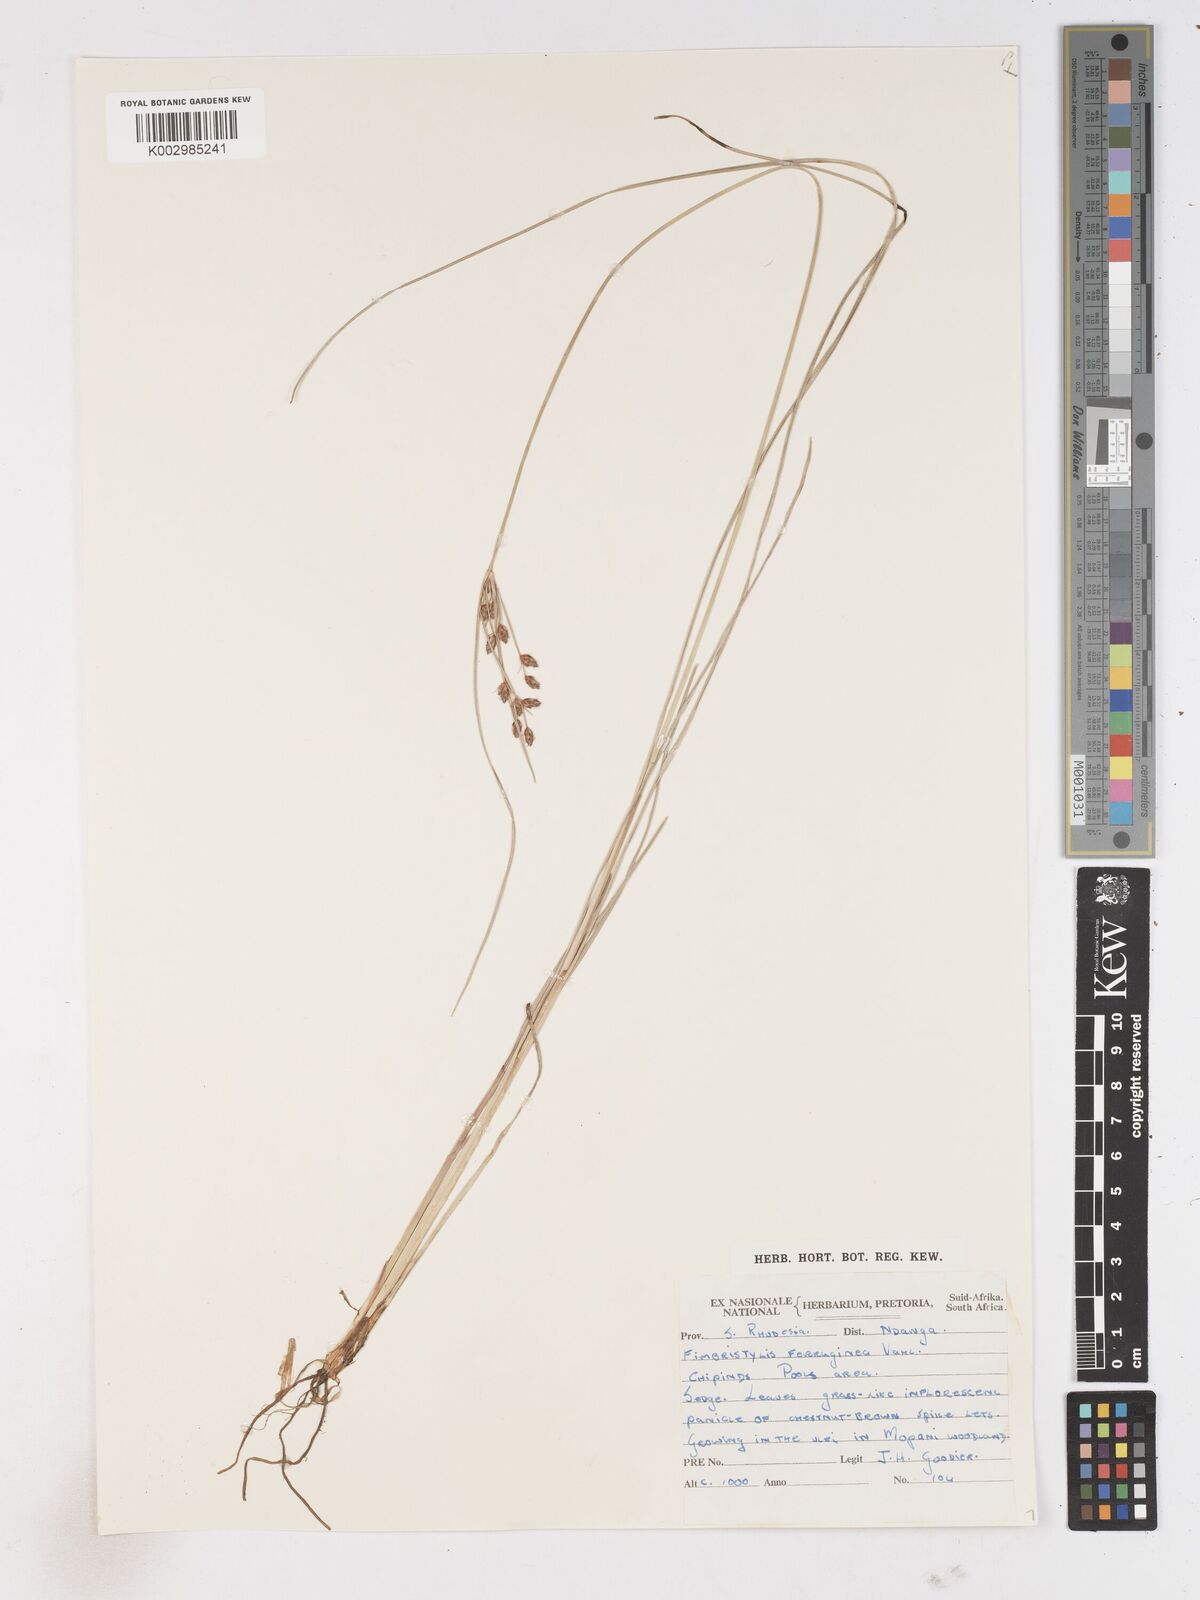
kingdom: Plantae
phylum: Tracheophyta
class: Liliopsida
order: Poales
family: Cyperaceae
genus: Fimbristylis
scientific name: Fimbristylis
